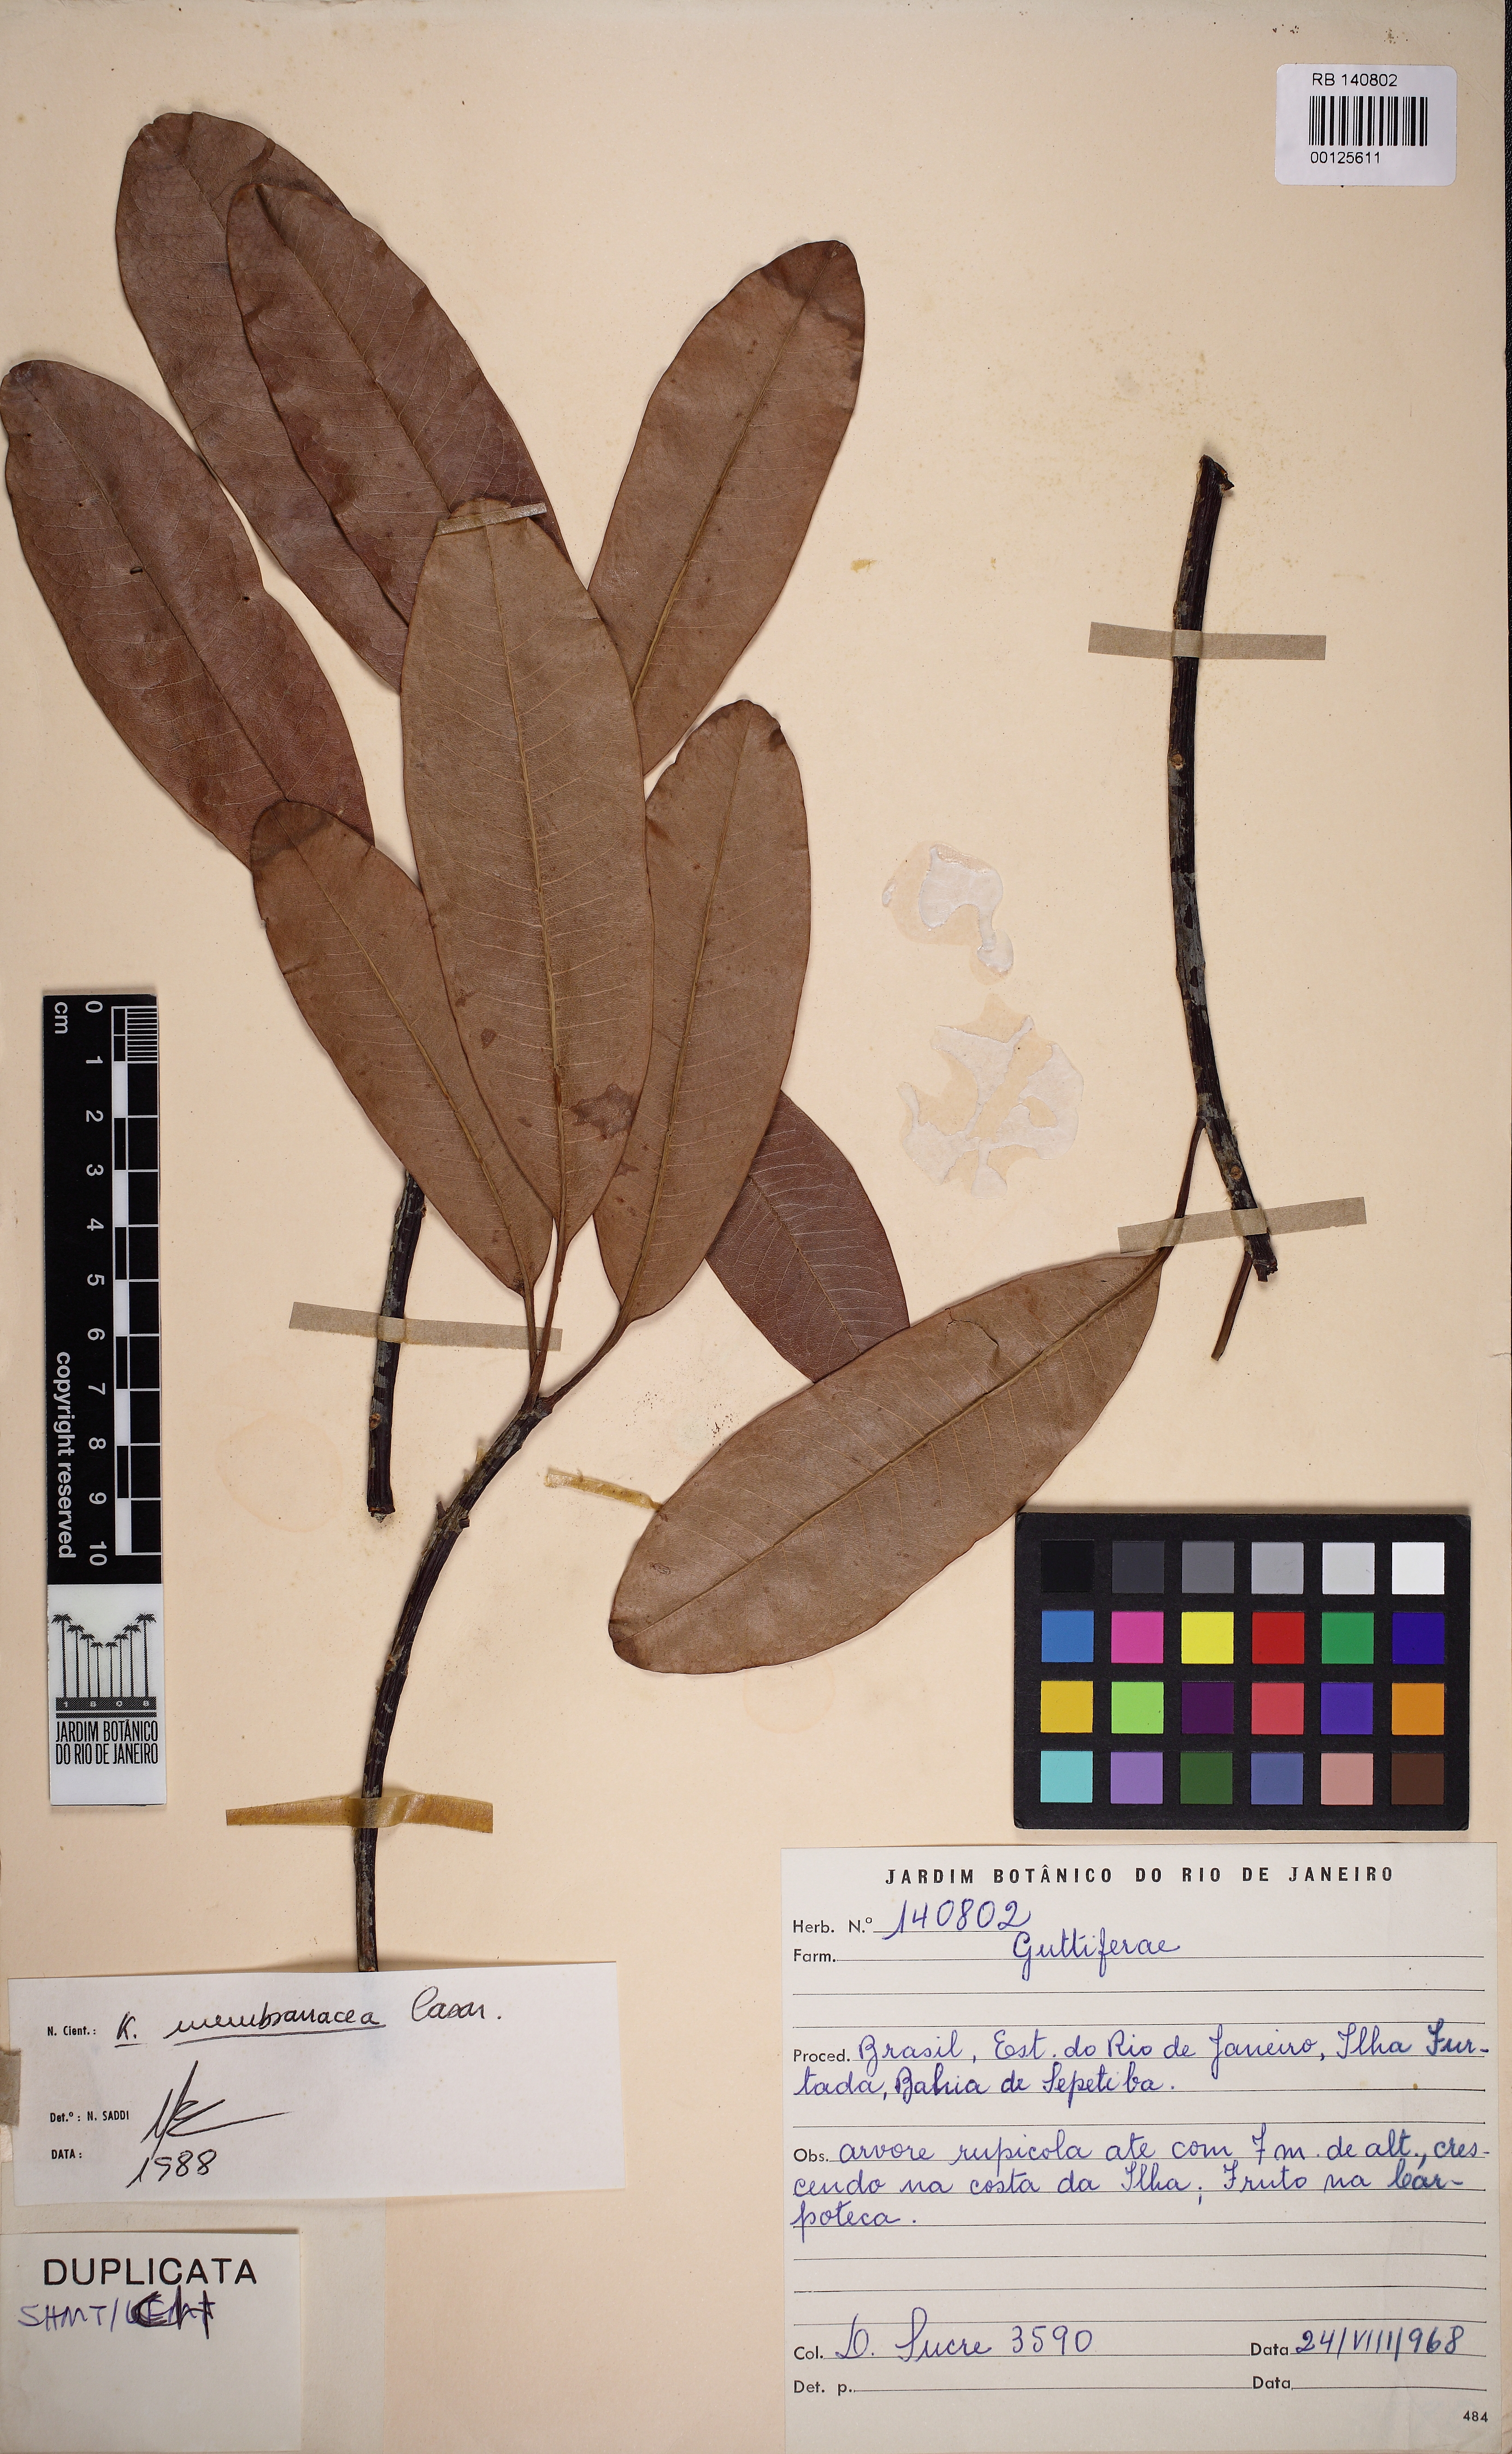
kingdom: Plantae
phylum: Tracheophyta
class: Magnoliopsida
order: Malpighiales
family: Calophyllaceae
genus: Kielmeyera
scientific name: Kielmeyera membranacea
